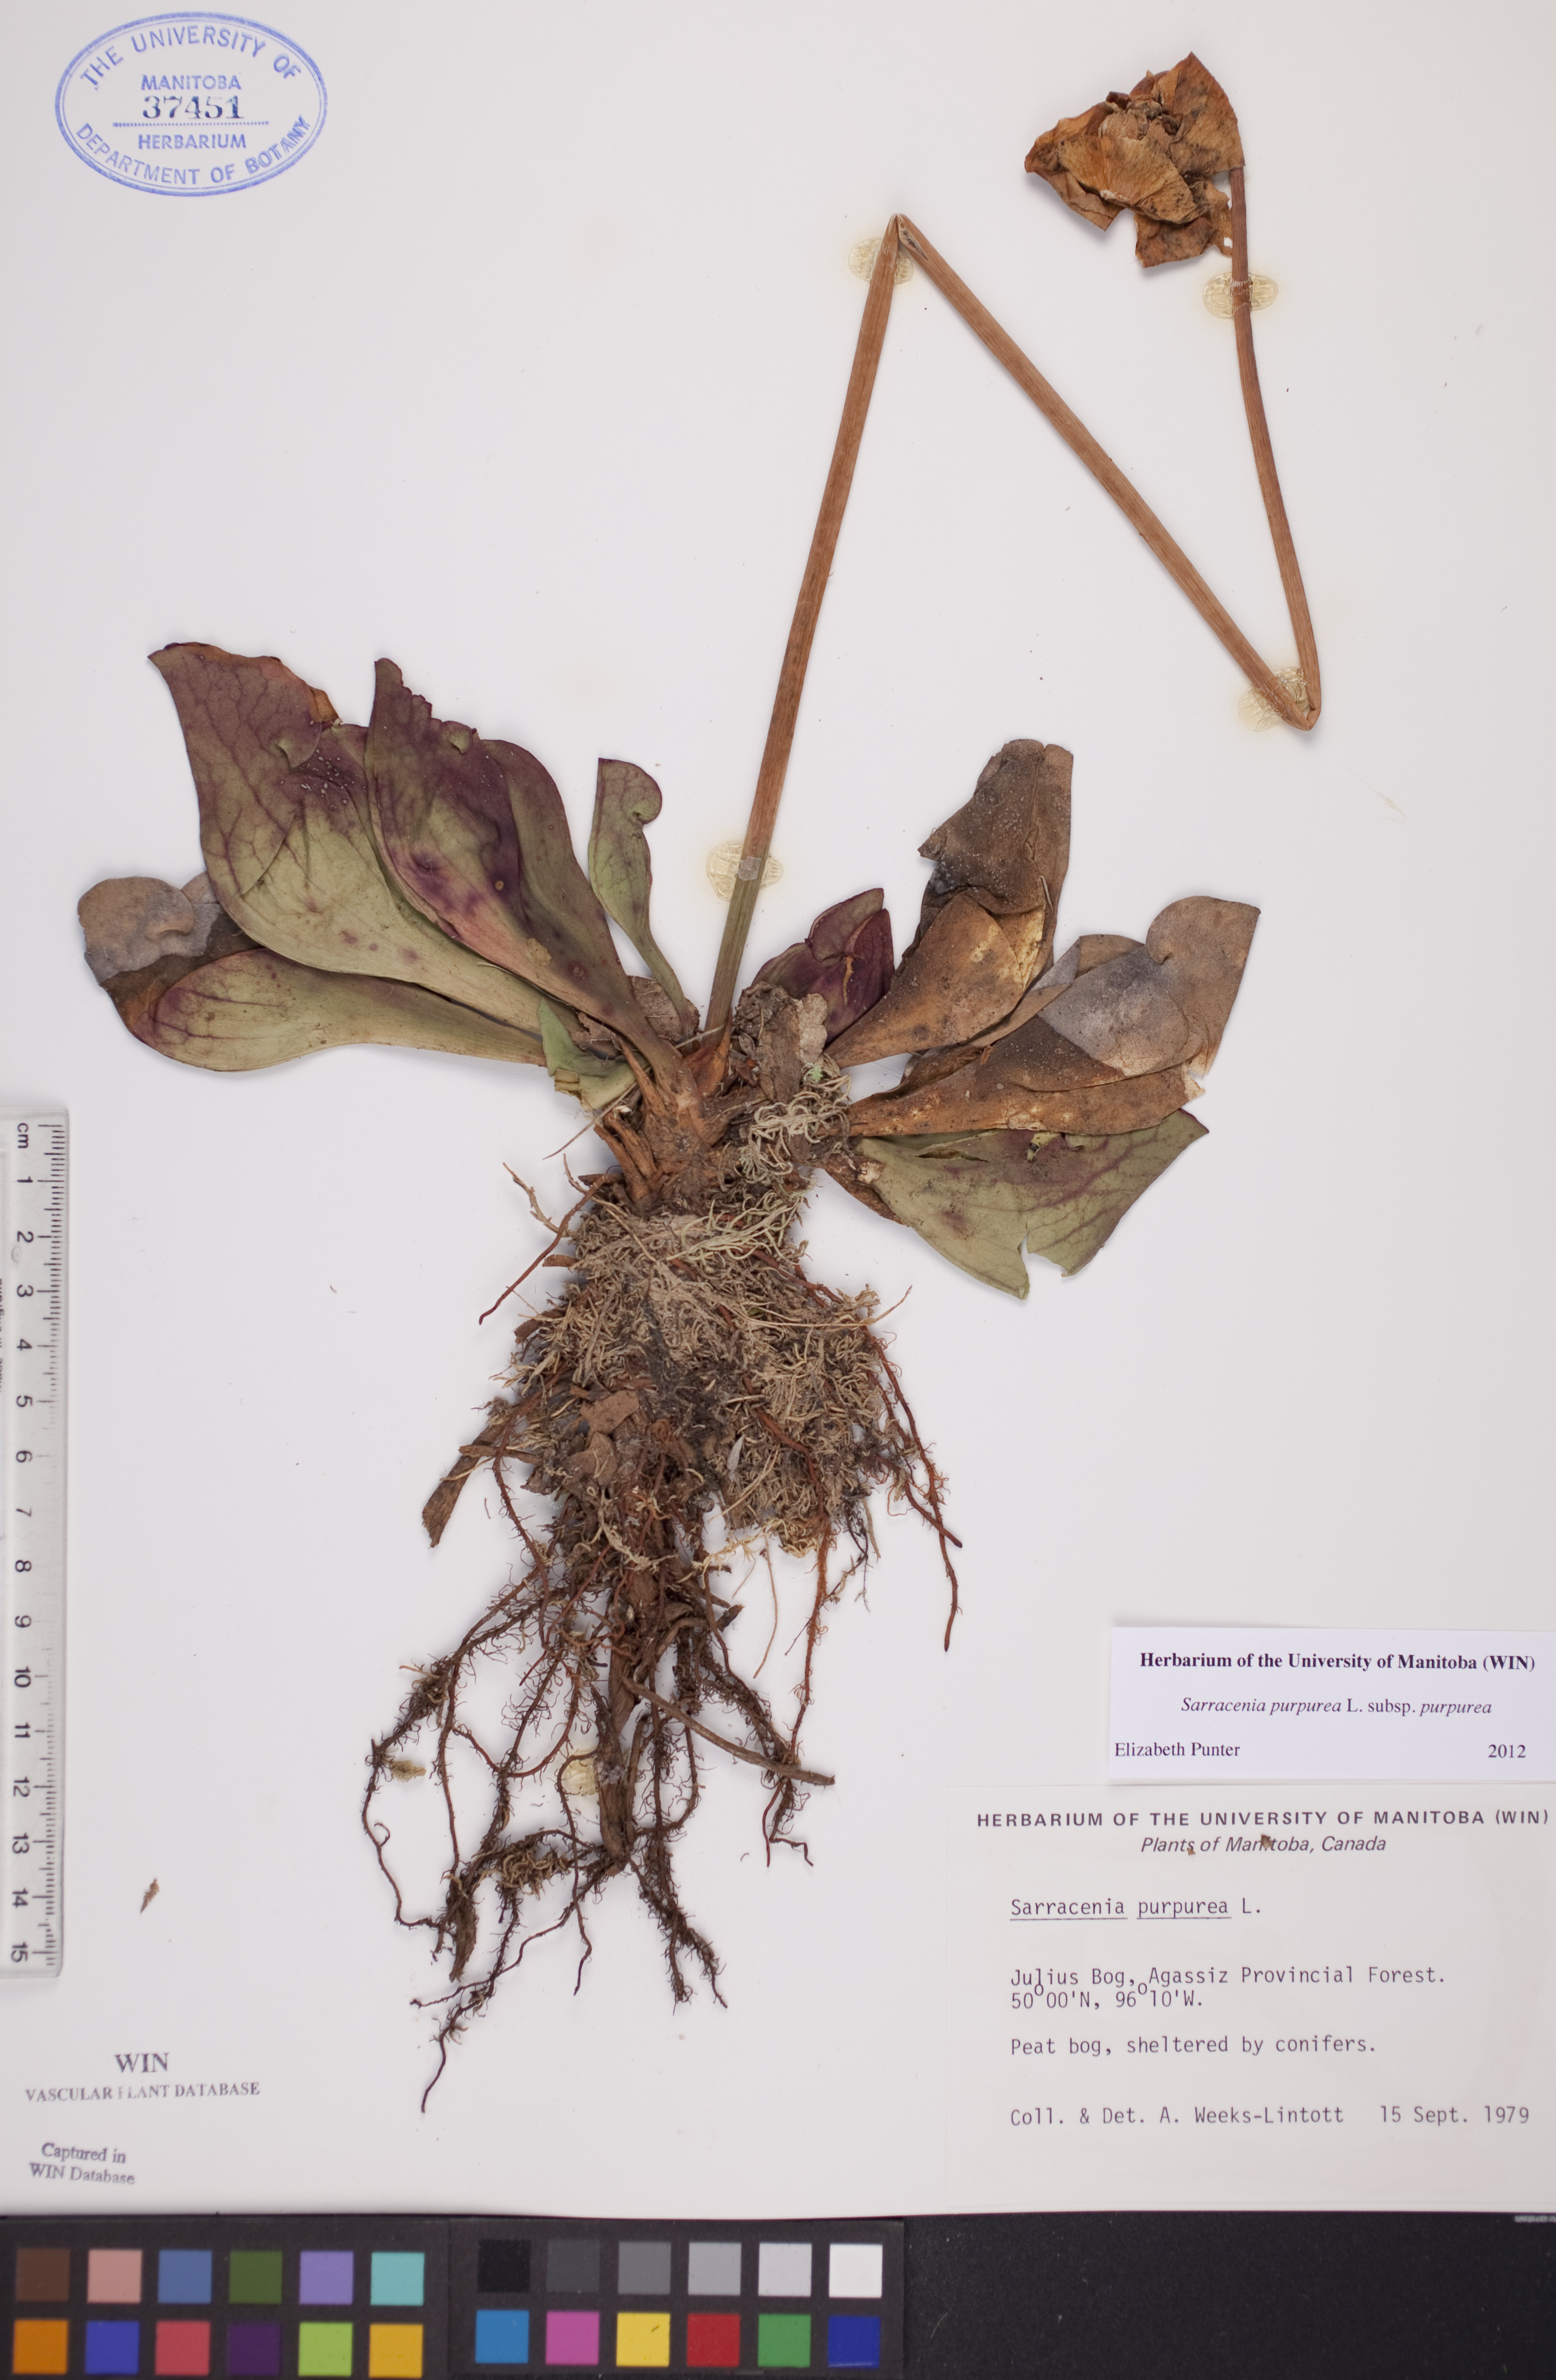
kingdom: Plantae
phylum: Tracheophyta
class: Magnoliopsida
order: Ericales
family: Sarraceniaceae
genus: Sarracenia
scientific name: Sarracenia purpurea
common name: Pitcherplant
